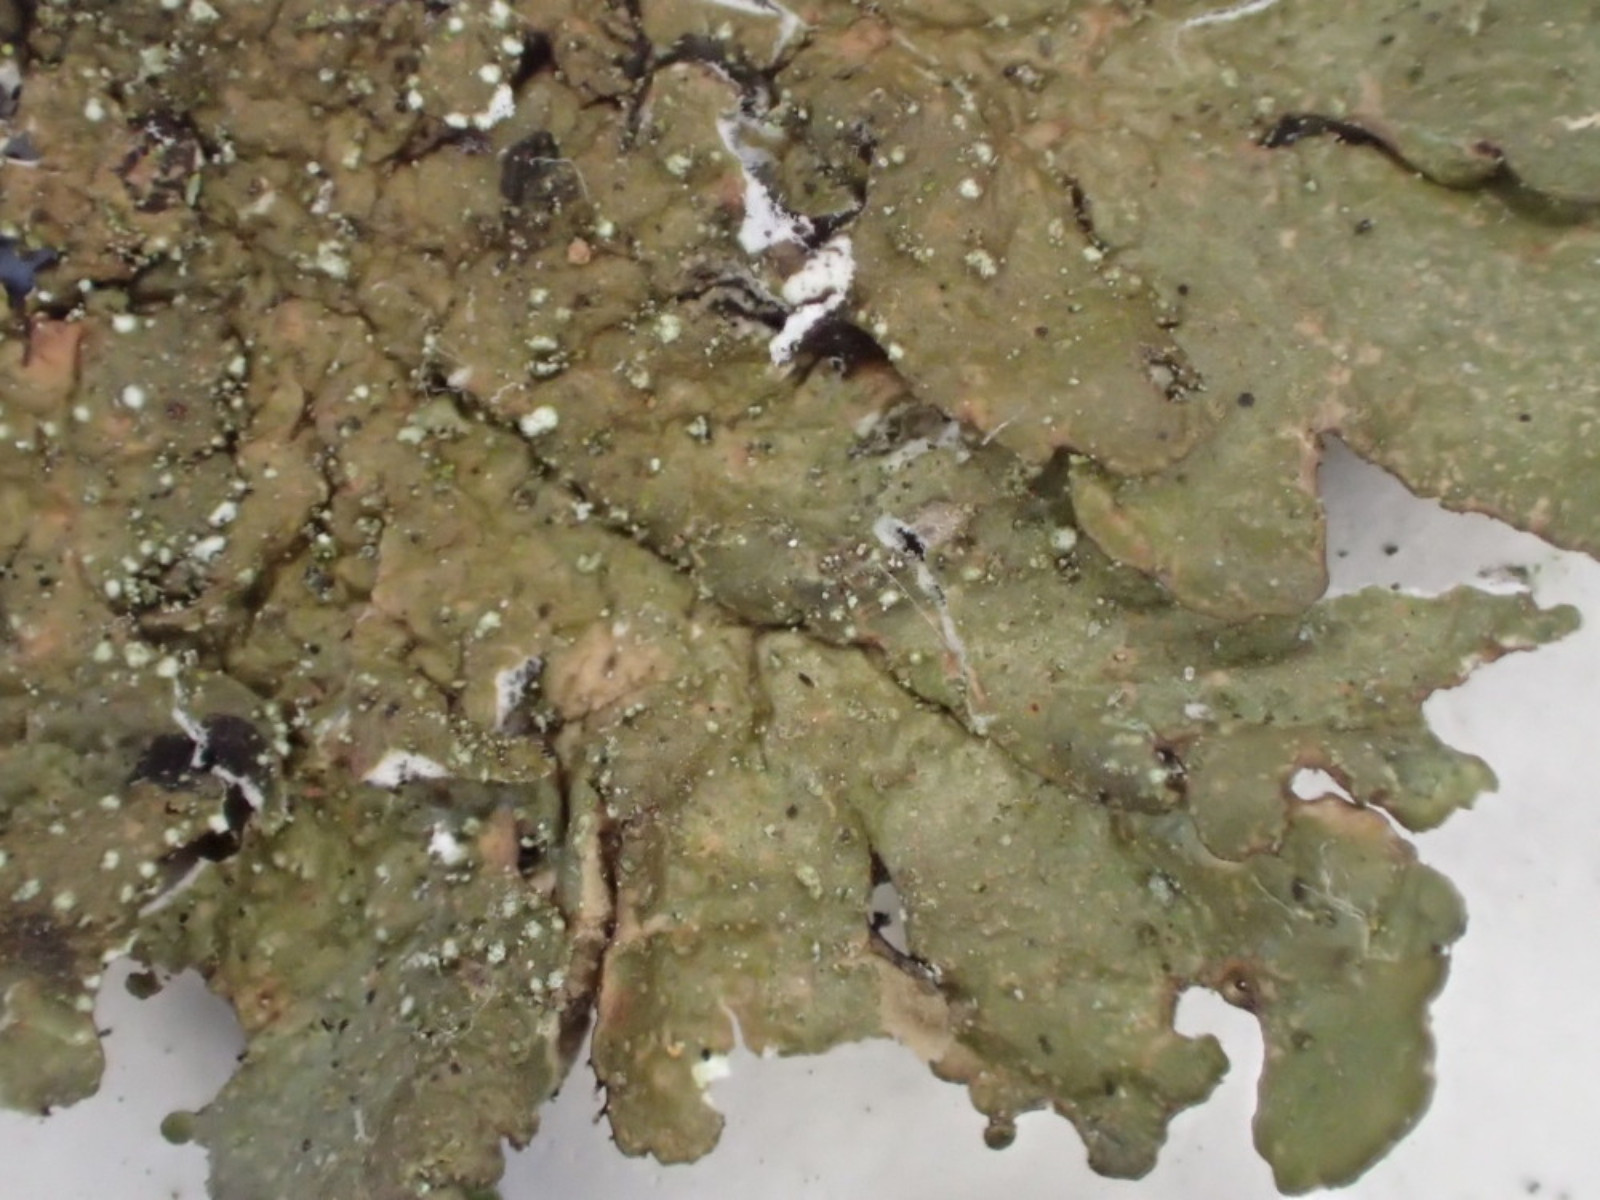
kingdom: Fungi
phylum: Ascomycota
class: Lecanoromycetes
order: Lecanorales
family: Parmeliaceae
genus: Melanelixia
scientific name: Melanelixia subaurifera
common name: guldpudret skållav
